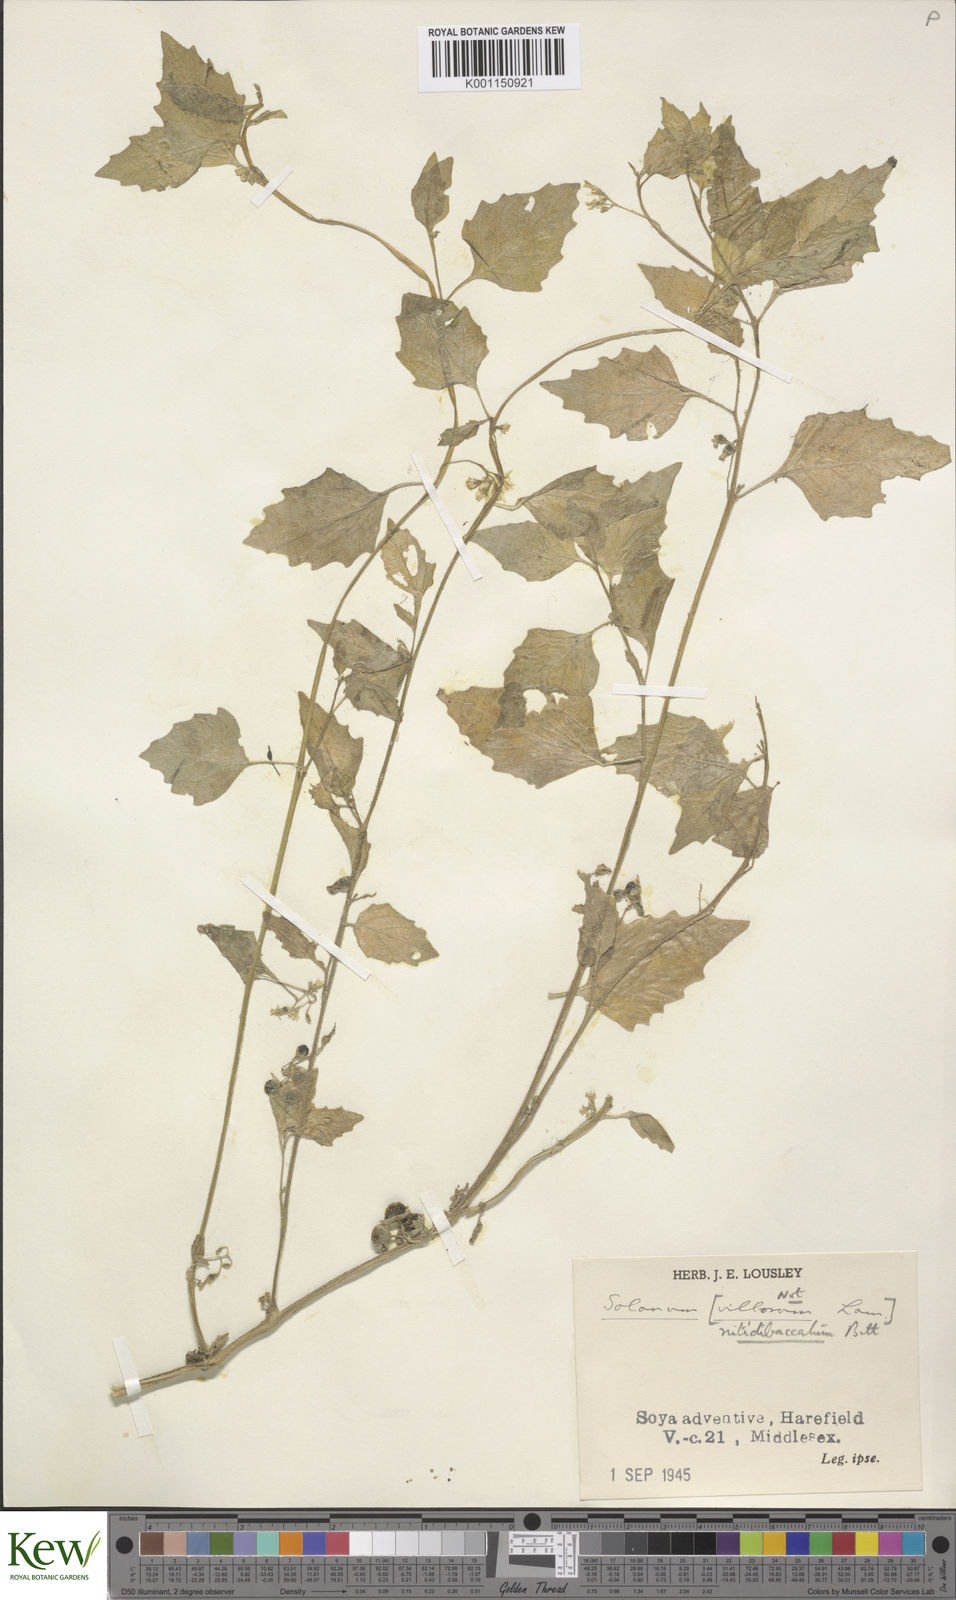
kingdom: Plantae
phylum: Tracheophyta
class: Magnoliopsida
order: Solanales
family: Solanaceae
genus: Solanum
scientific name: Solanum nitidibaccatum
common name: Hairy nightshade
